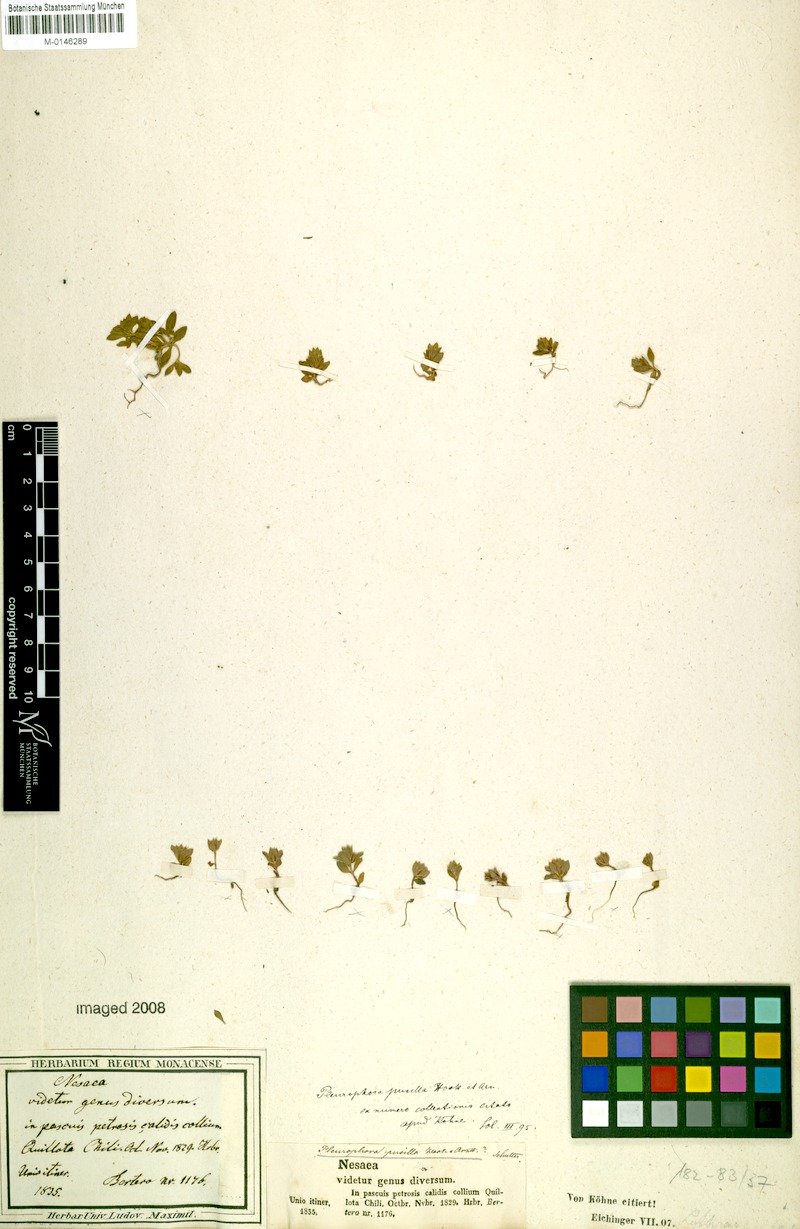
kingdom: Plantae
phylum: Tracheophyta
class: Magnoliopsida
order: Myrtales
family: Lythraceae
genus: Pleurophora
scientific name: Pleurophora pusilla
